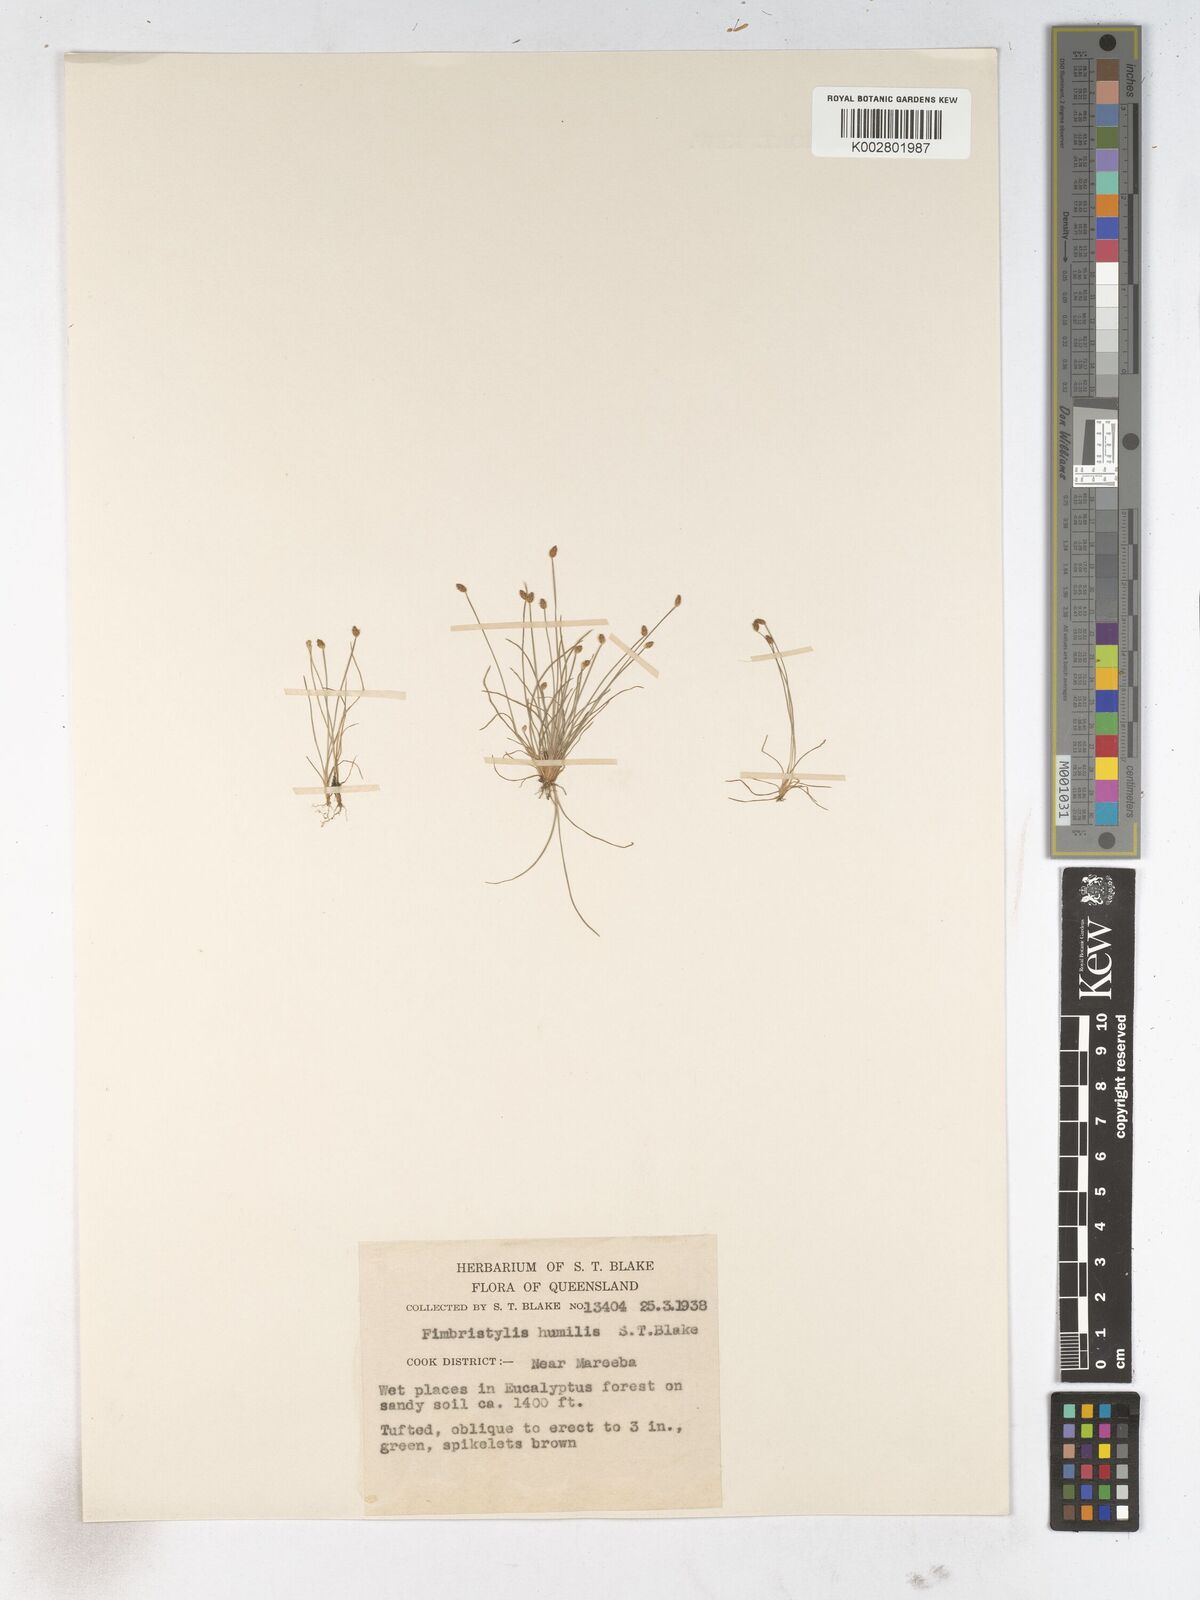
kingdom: Plantae
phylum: Tracheophyta
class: Liliopsida
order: Poales
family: Cyperaceae
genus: Fimbristylis
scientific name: Fimbristylis nuda
